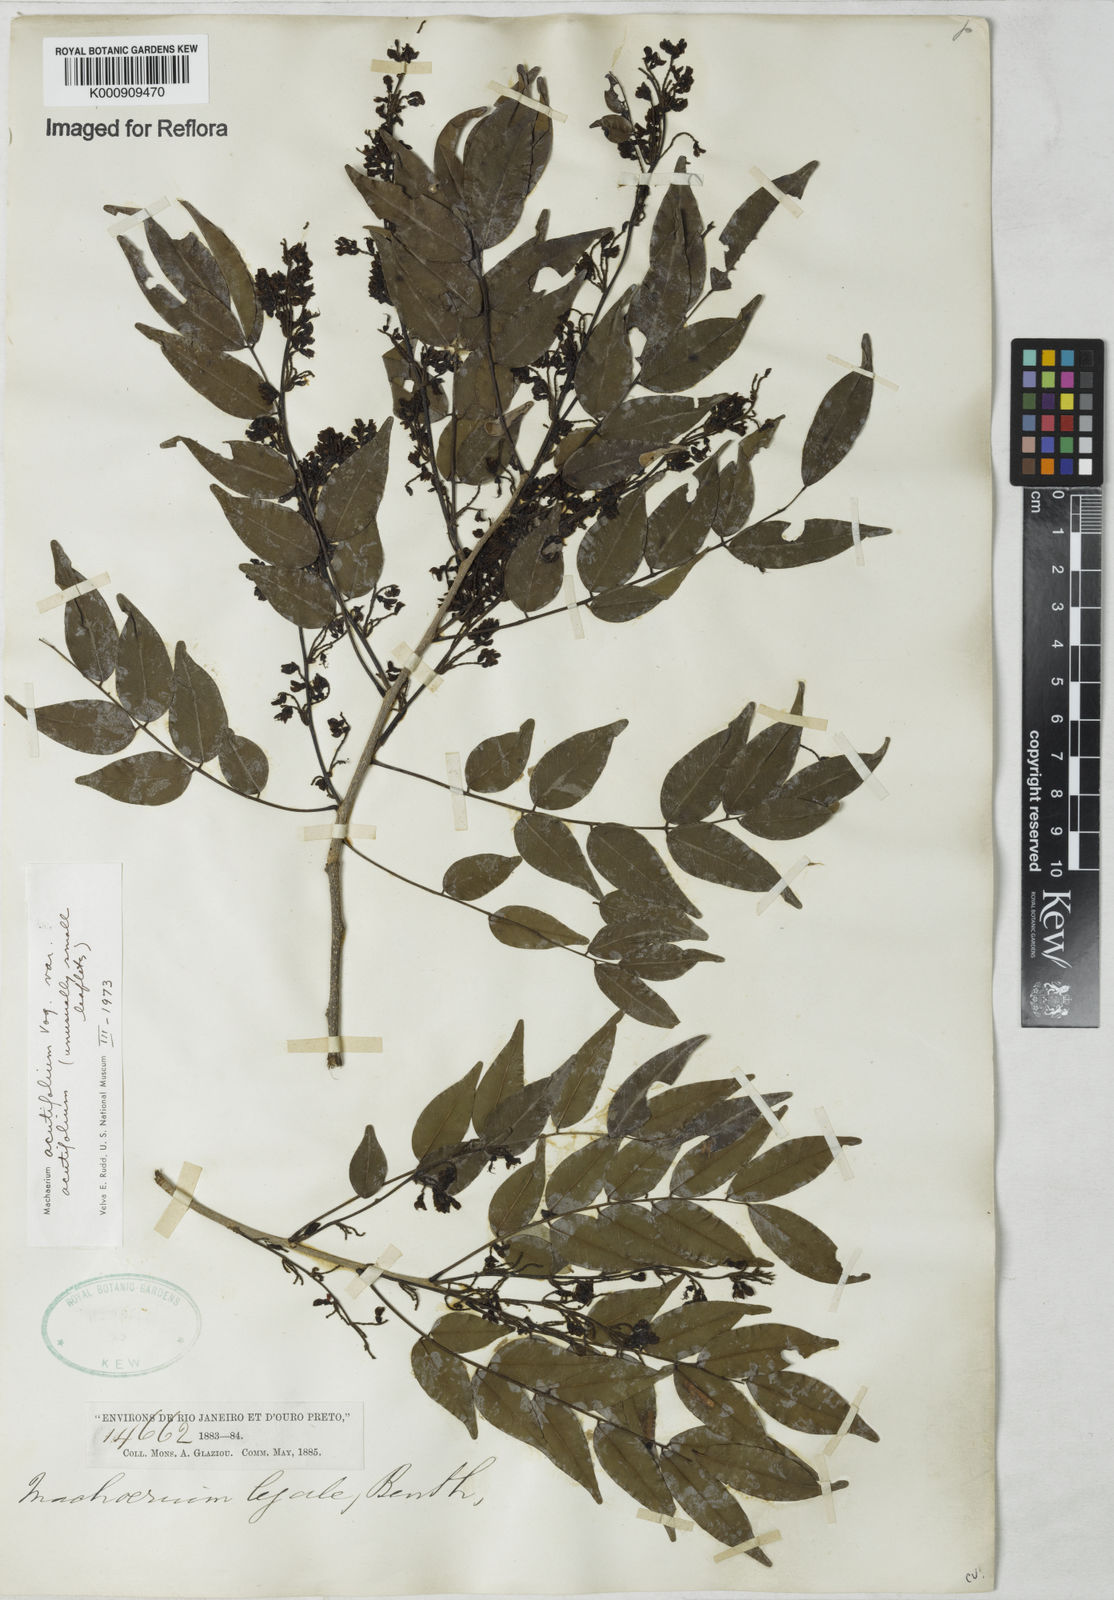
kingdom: Plantae
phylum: Tracheophyta
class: Magnoliopsida
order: Fabales
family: Fabaceae
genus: Machaerium
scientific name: Machaerium acutifolium
